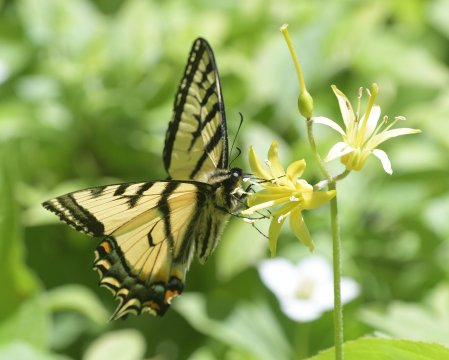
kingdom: Animalia
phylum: Arthropoda
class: Insecta
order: Lepidoptera
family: Papilionidae
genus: Pterourus
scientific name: Pterourus canadensis
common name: Canadian Tiger Swallowtail
